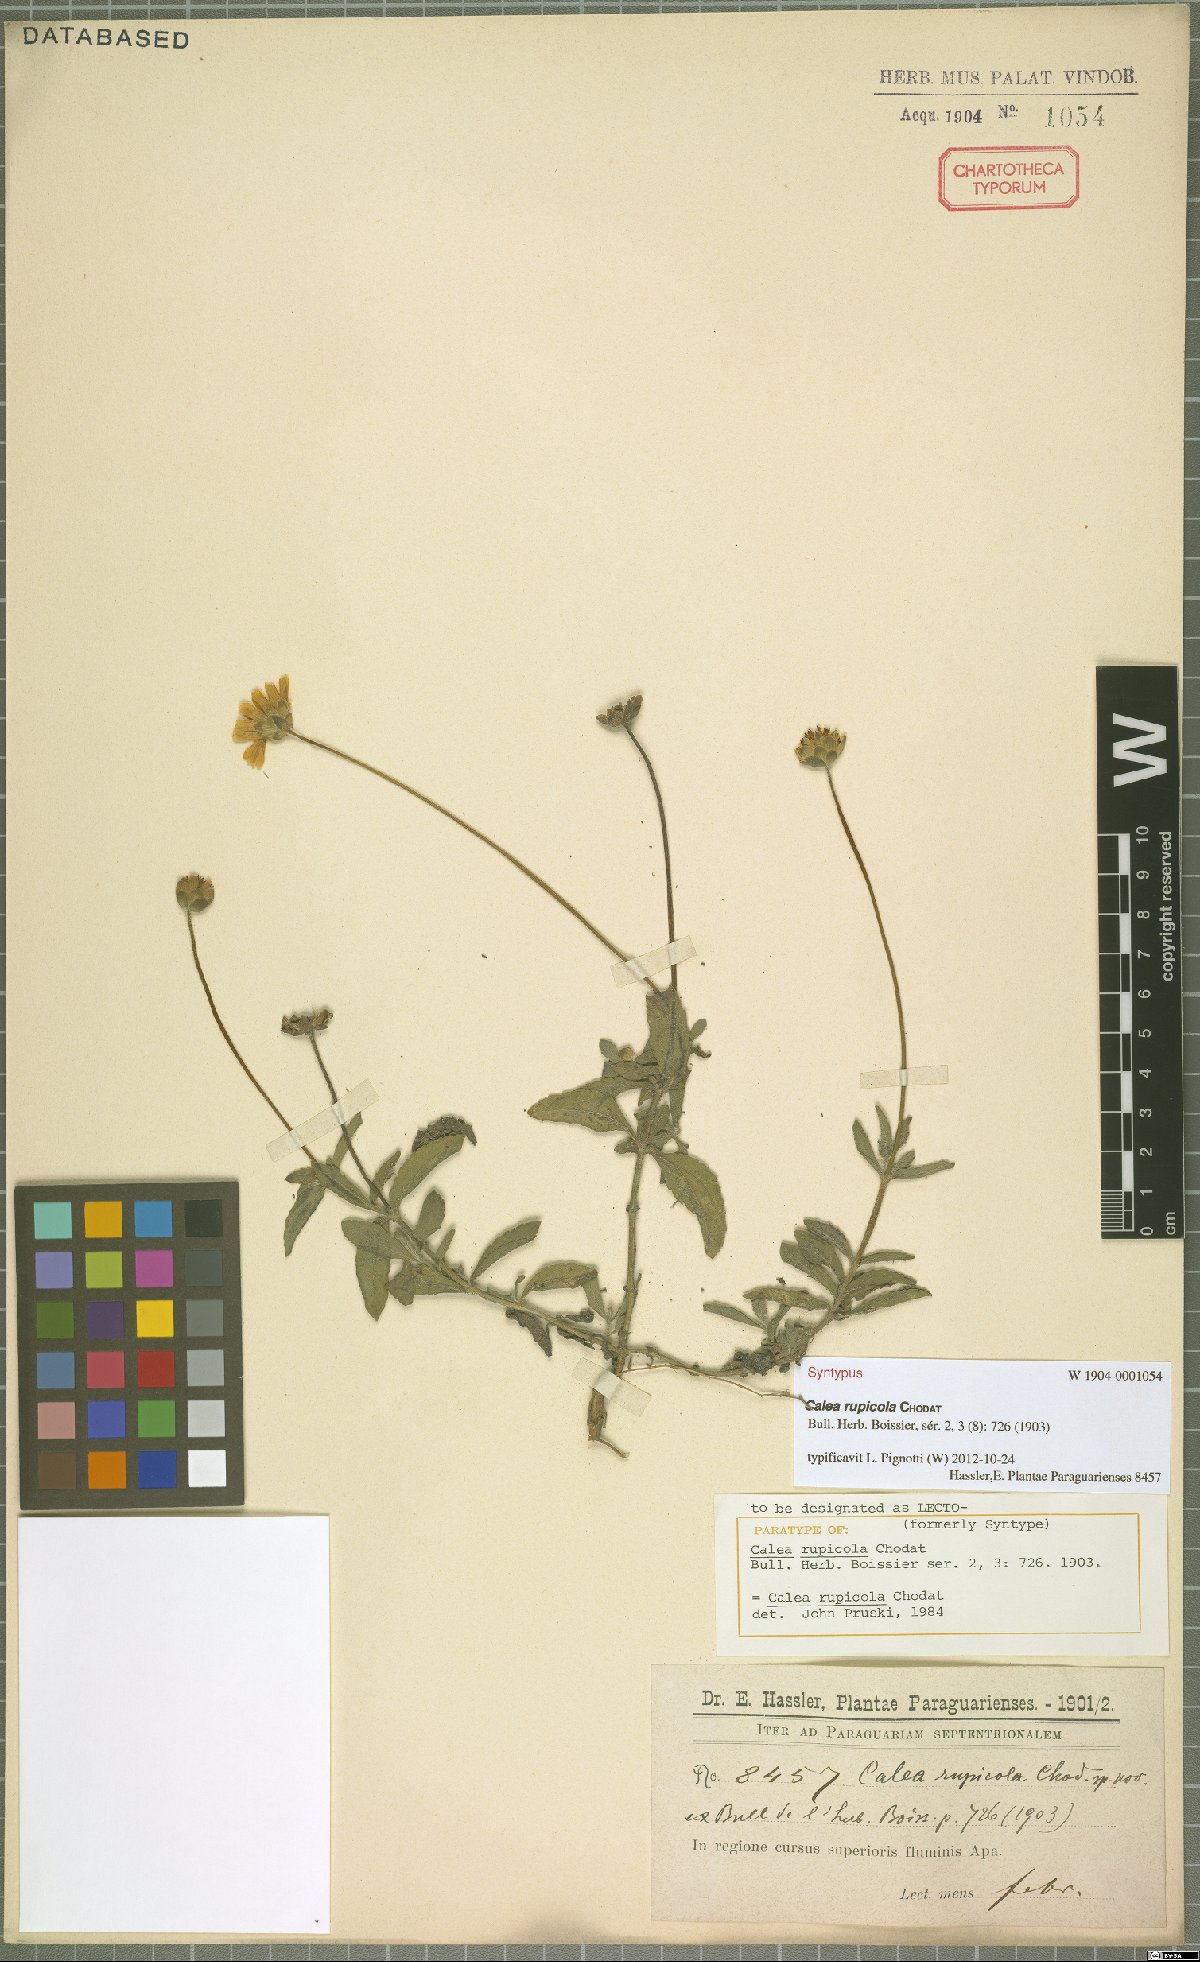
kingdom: Plantae
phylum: Tracheophyta
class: Magnoliopsida
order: Asterales
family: Asteraceae
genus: Calea
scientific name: Calea rupicola
